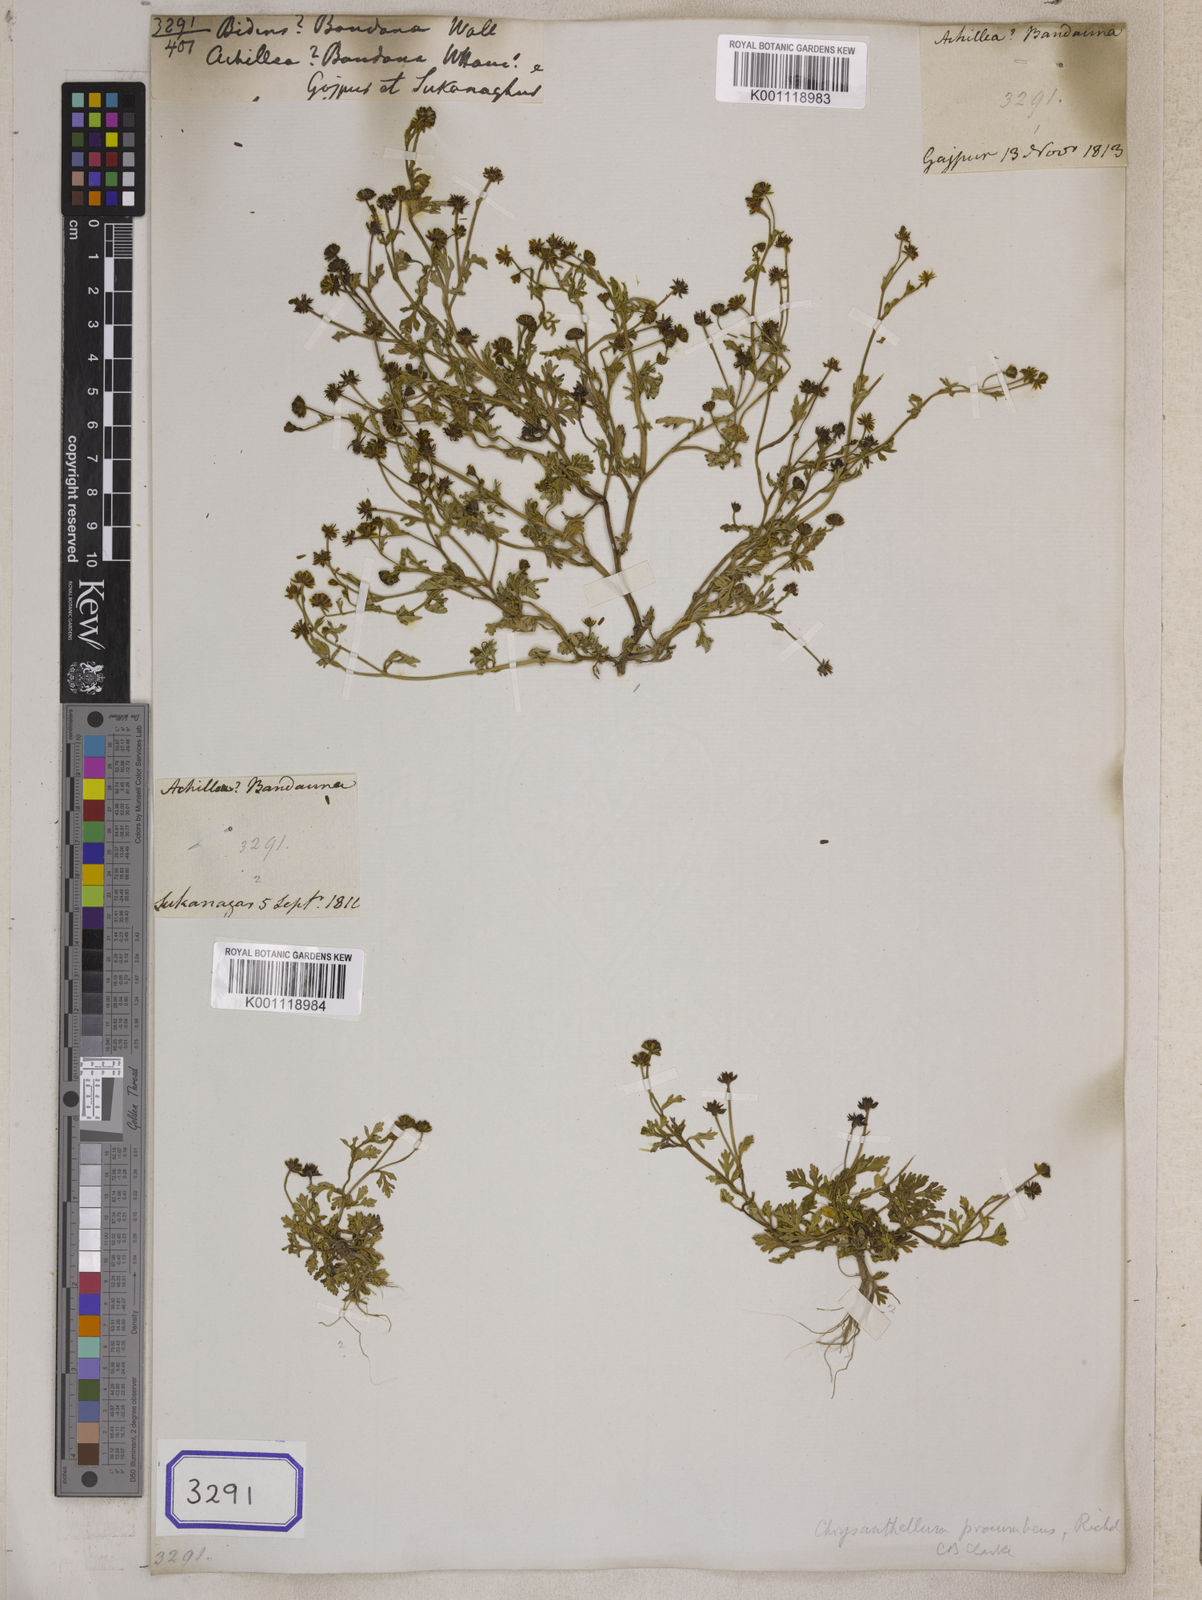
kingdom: Plantae
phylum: Tracheophyta
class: Magnoliopsida
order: Asterales
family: Asteraceae
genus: Chrysanthemum
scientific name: Chrysanthemum indicum
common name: Indian chrysanthemum
